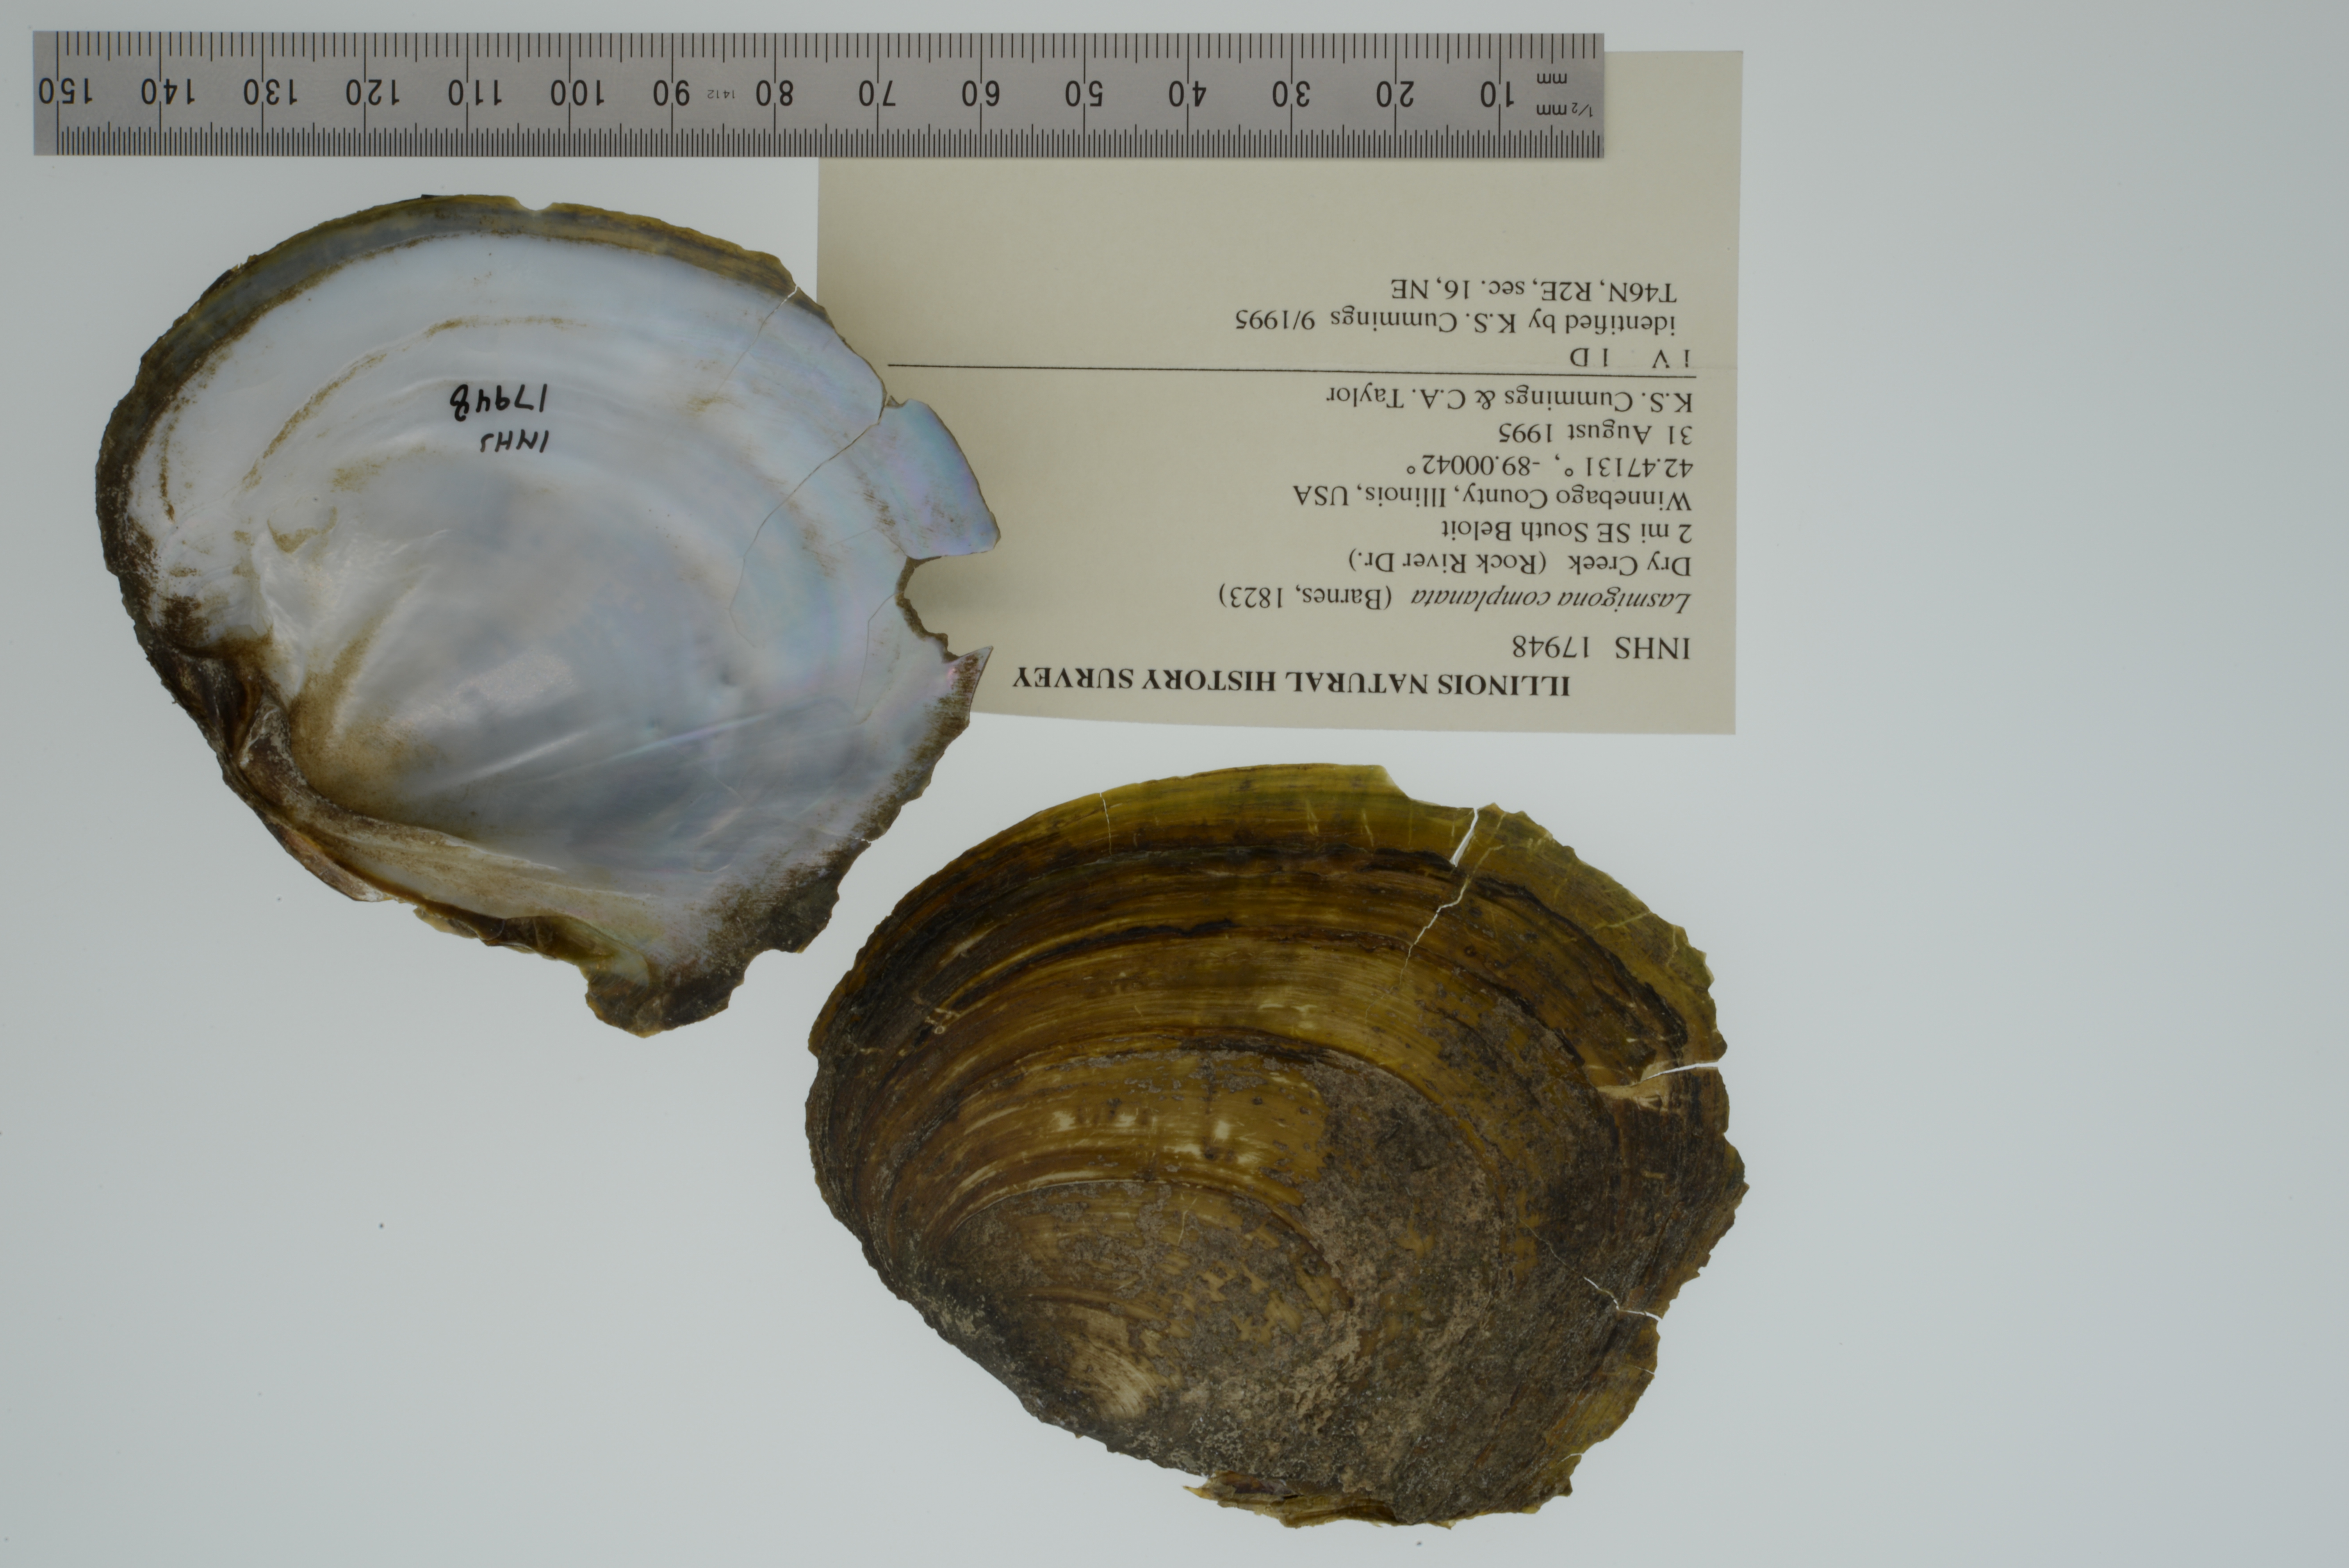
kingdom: Animalia
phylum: Mollusca
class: Bivalvia
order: Unionida
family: Unionidae
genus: Lasmigona
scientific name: Lasmigona complanata
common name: White heelsplitter
